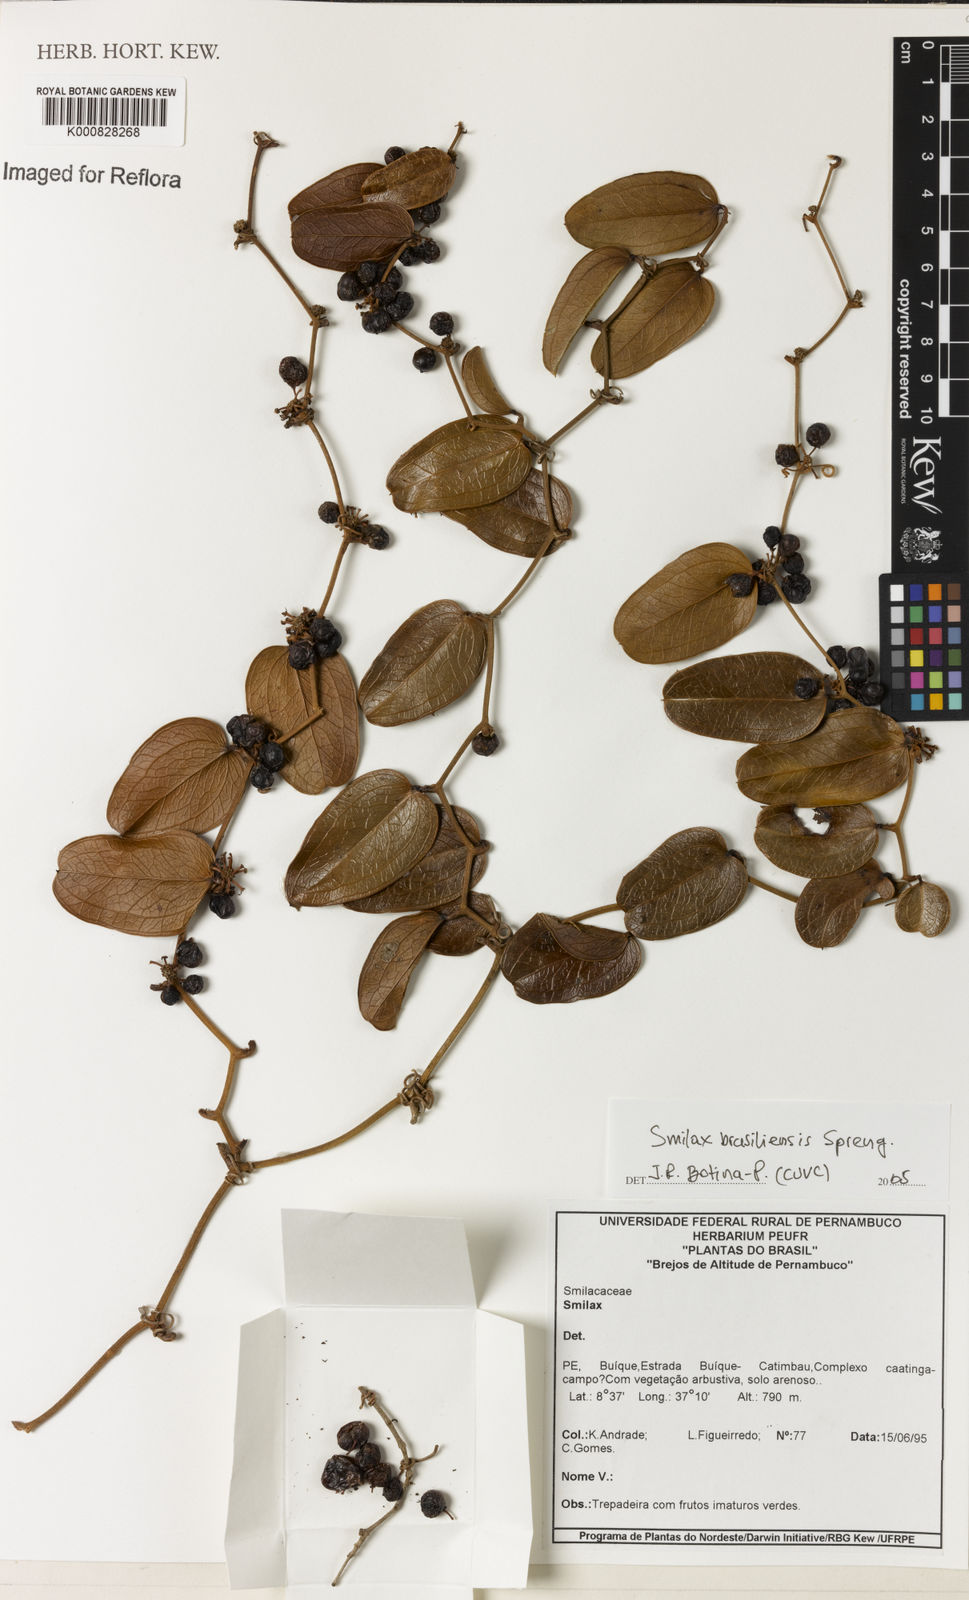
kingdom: Plantae
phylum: Tracheophyta
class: Liliopsida
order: Liliales
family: Smilacaceae
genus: Smilax
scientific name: Smilax brasiliensis
